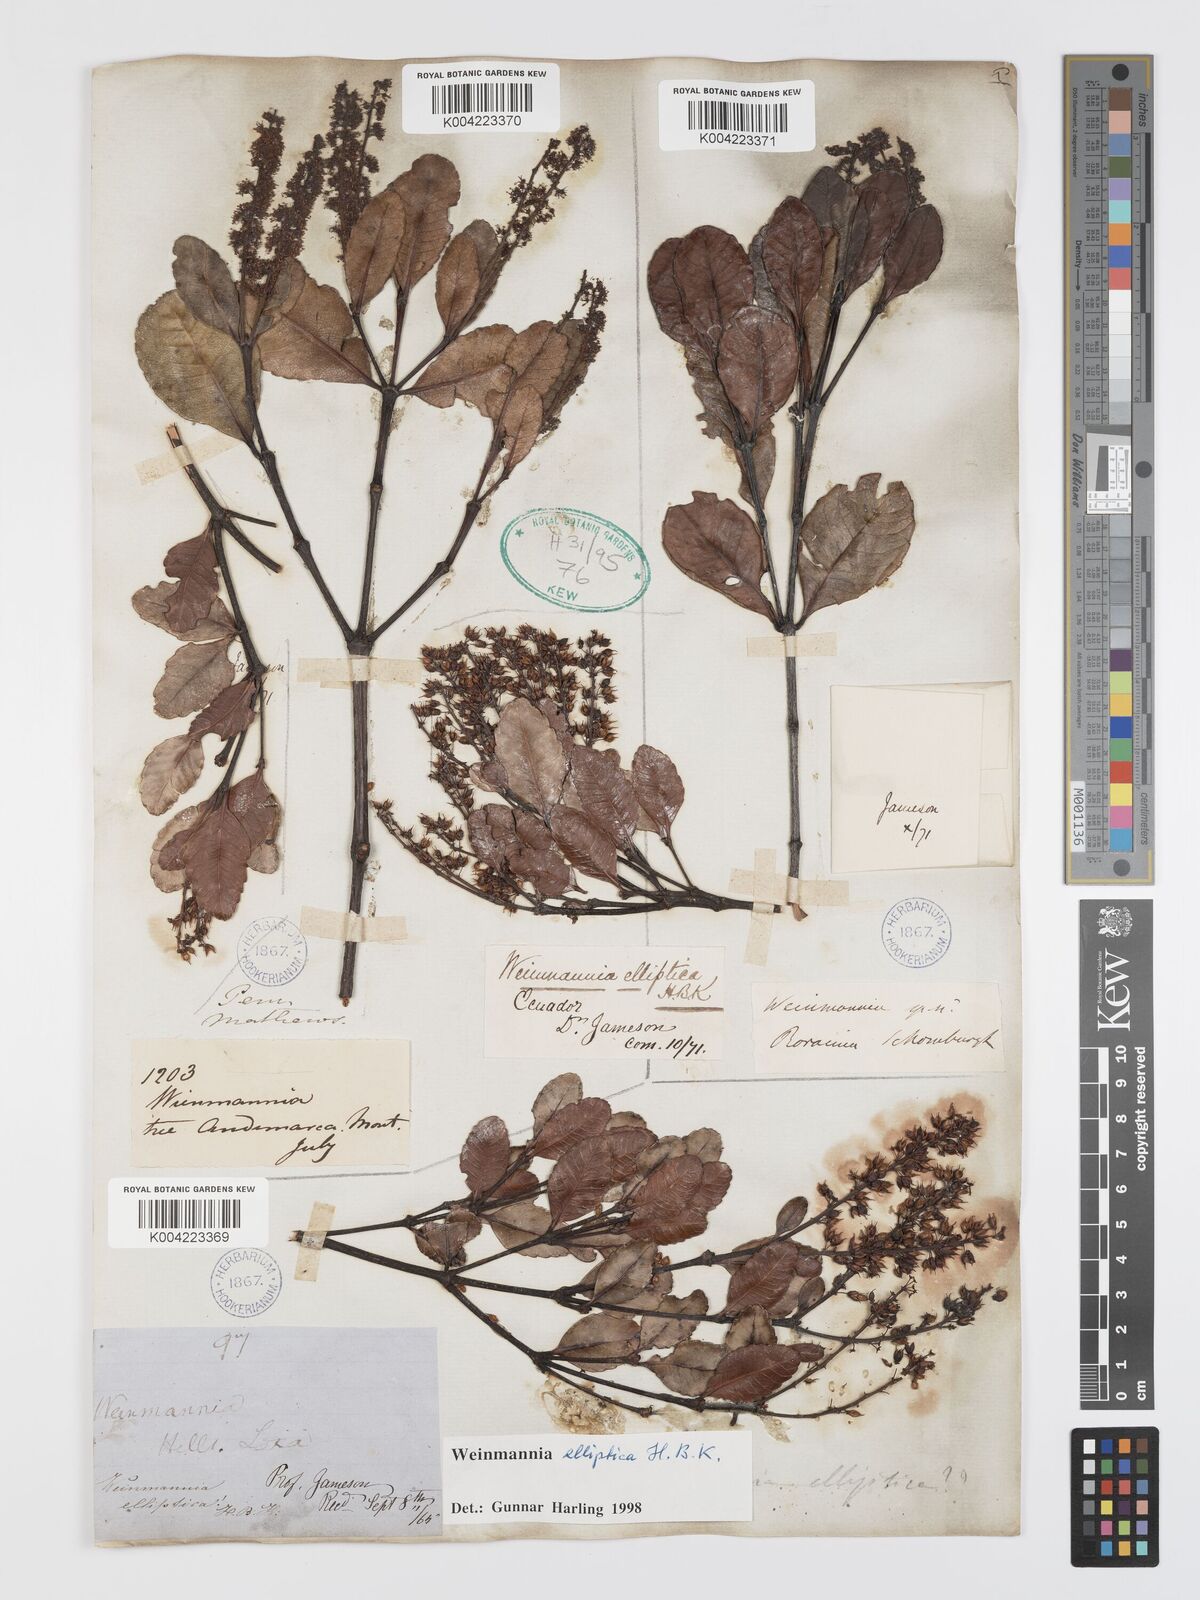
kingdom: Plantae
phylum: Tracheophyta
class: Magnoliopsida
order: Oxalidales
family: Cunoniaceae
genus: Weinmannia
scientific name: Weinmannia elliptica
